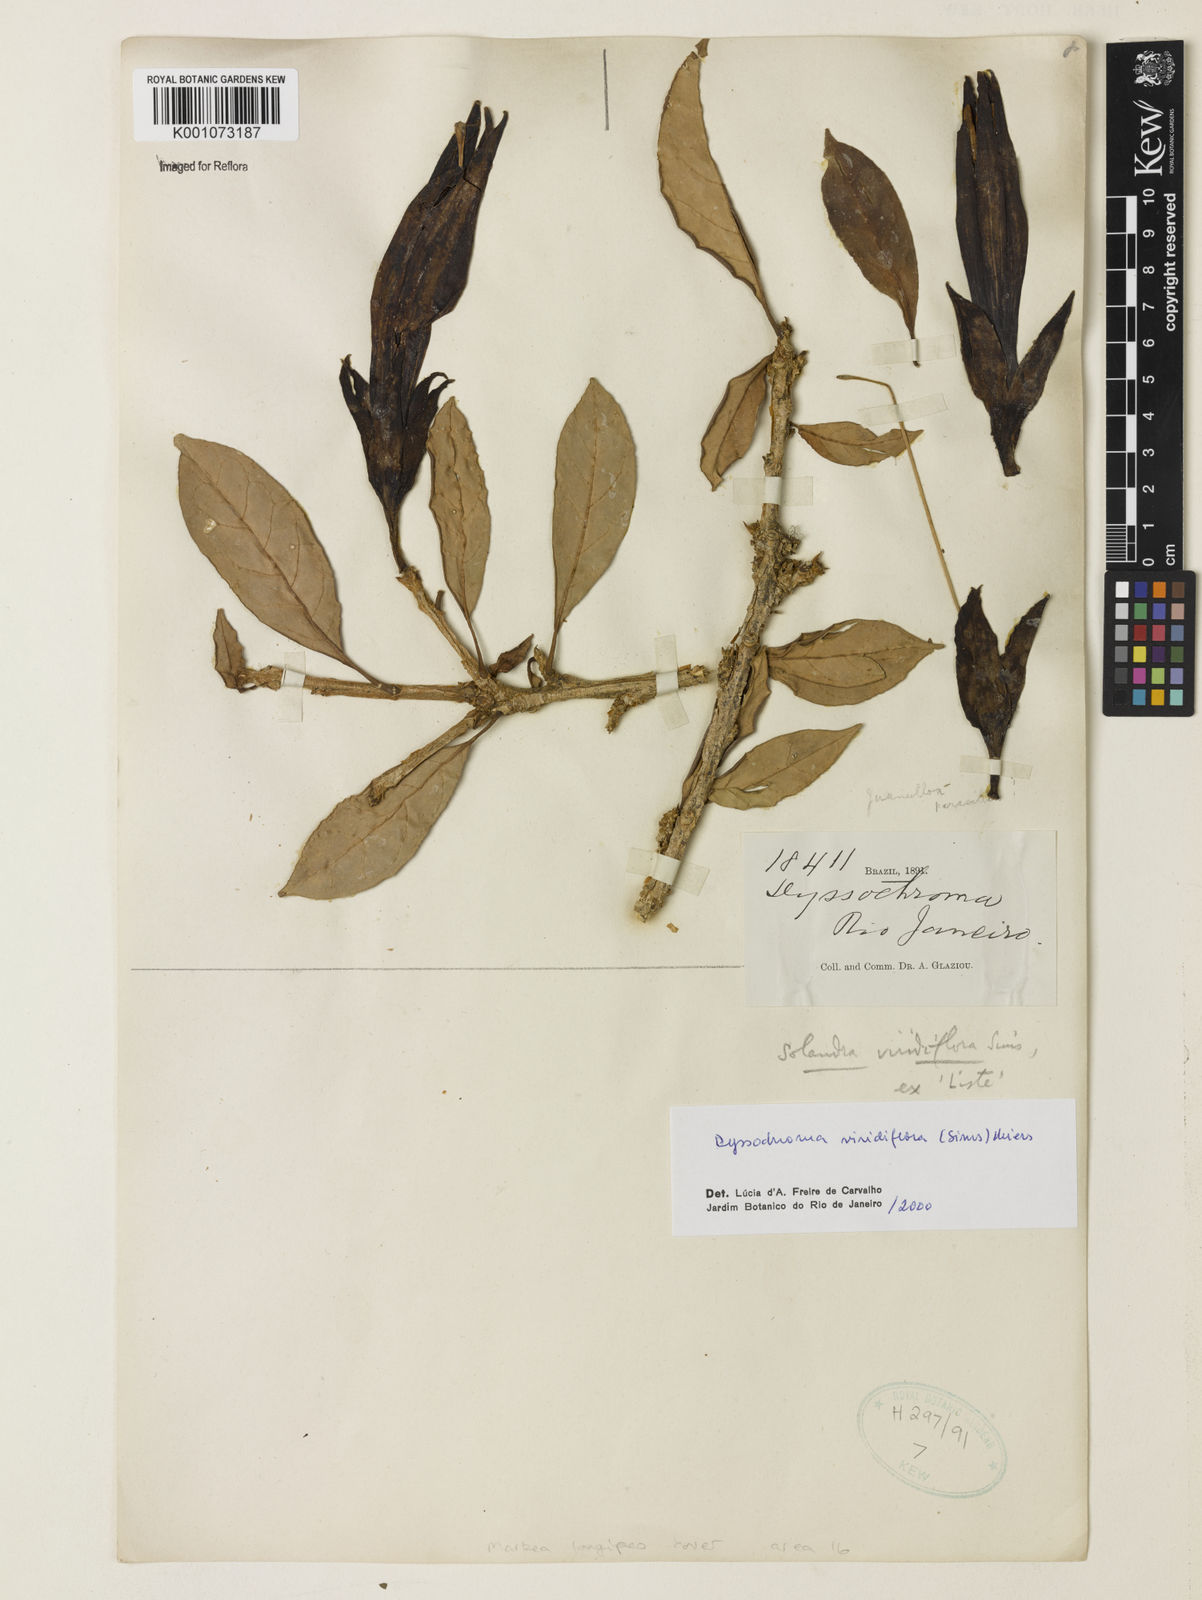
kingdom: Plantae
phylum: Tracheophyta
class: Magnoliopsida
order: Solanales
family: Solanaceae
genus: Dyssochroma
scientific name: Dyssochroma longipes
